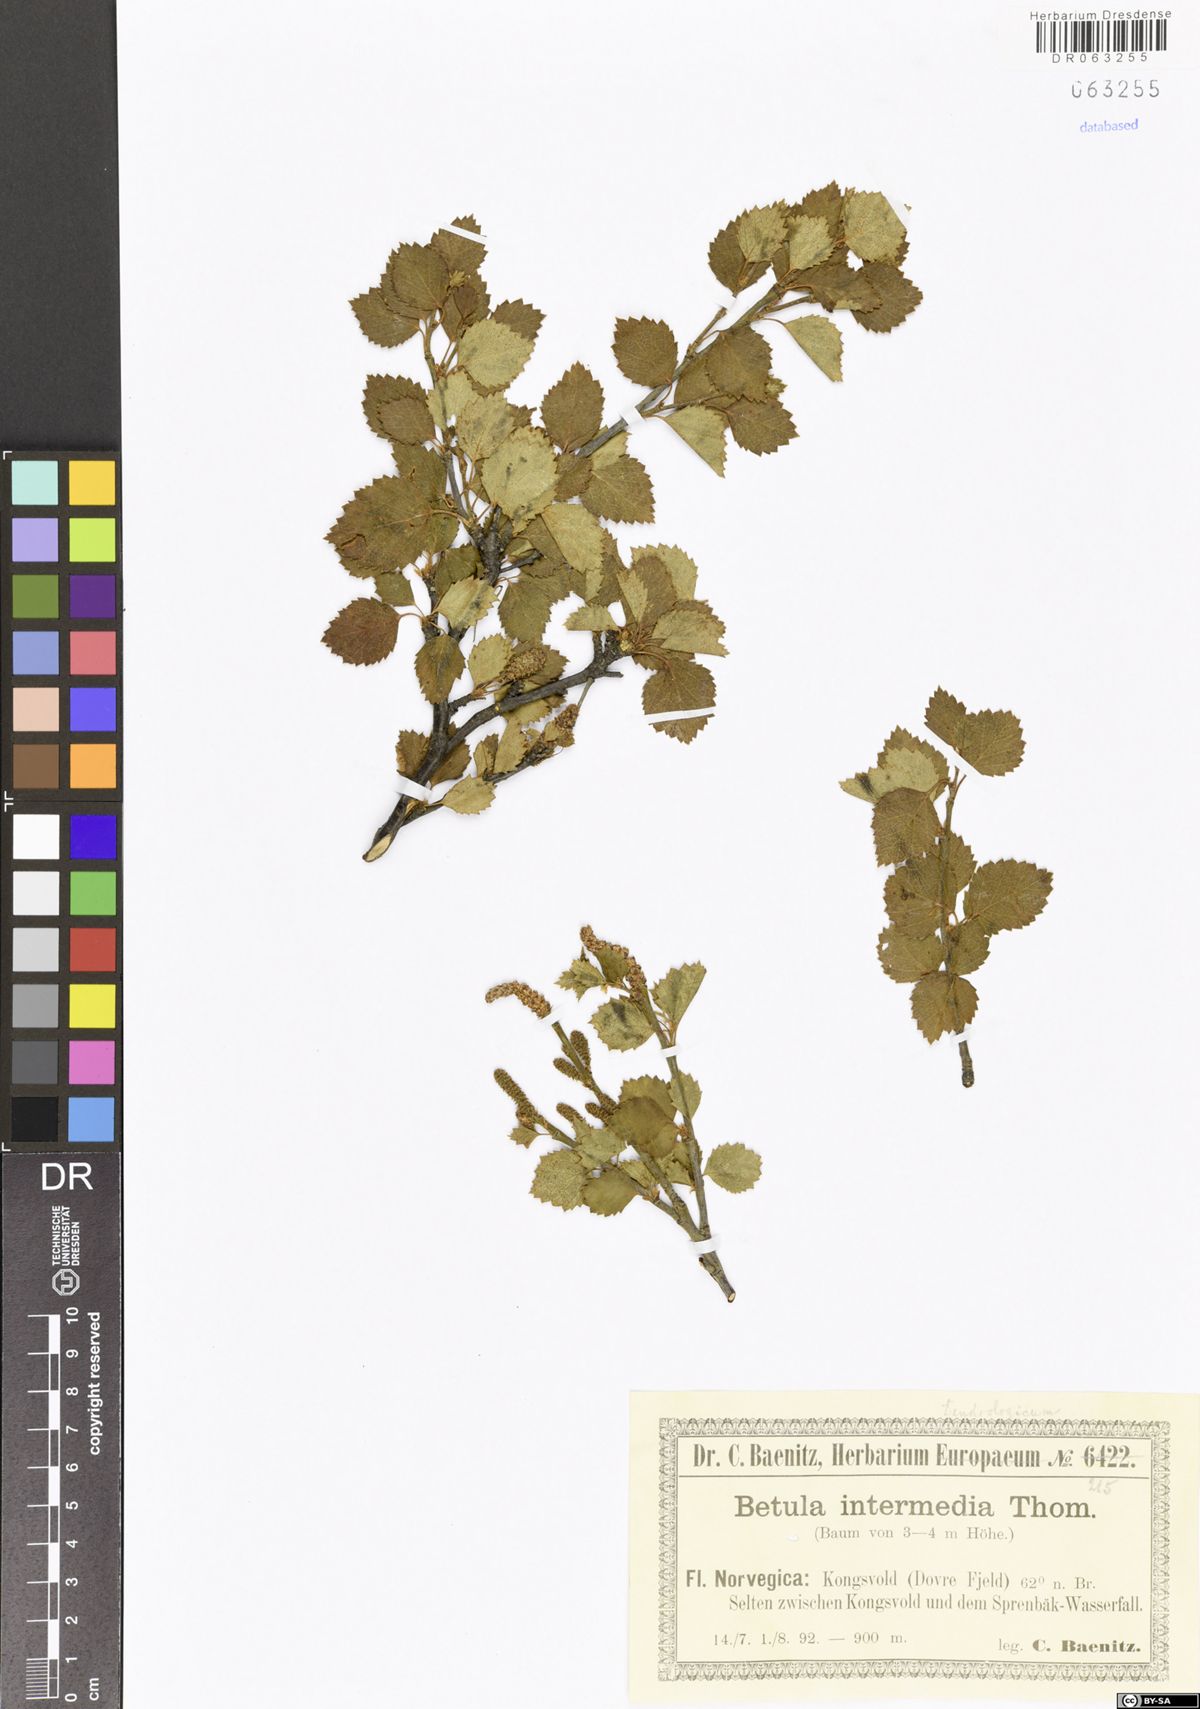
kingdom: Plantae
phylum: Tracheophyta
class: Magnoliopsida
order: Fagales
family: Betulaceae
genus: Betula
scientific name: Betula intermedia
